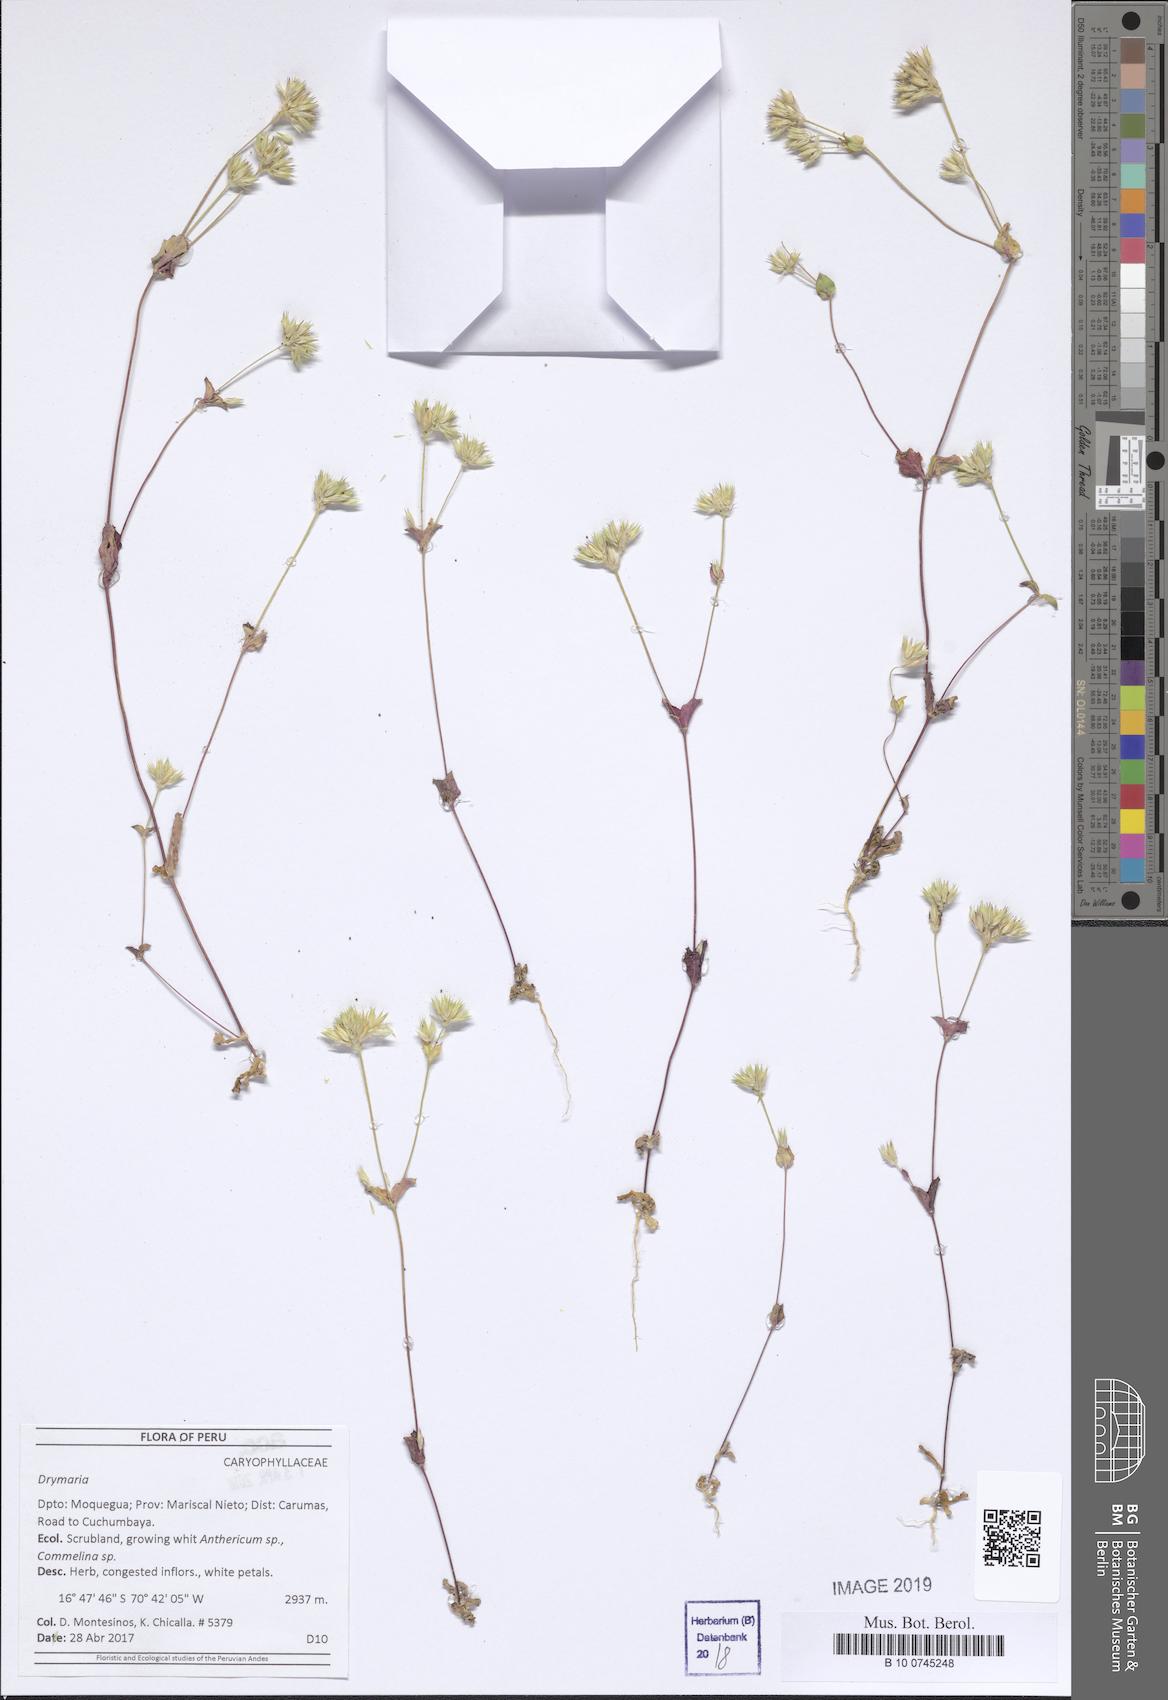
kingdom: Plantae
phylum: Tracheophyta
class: Magnoliopsida
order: Caryophyllales
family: Caryophyllaceae
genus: Drymaria
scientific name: Drymaria
